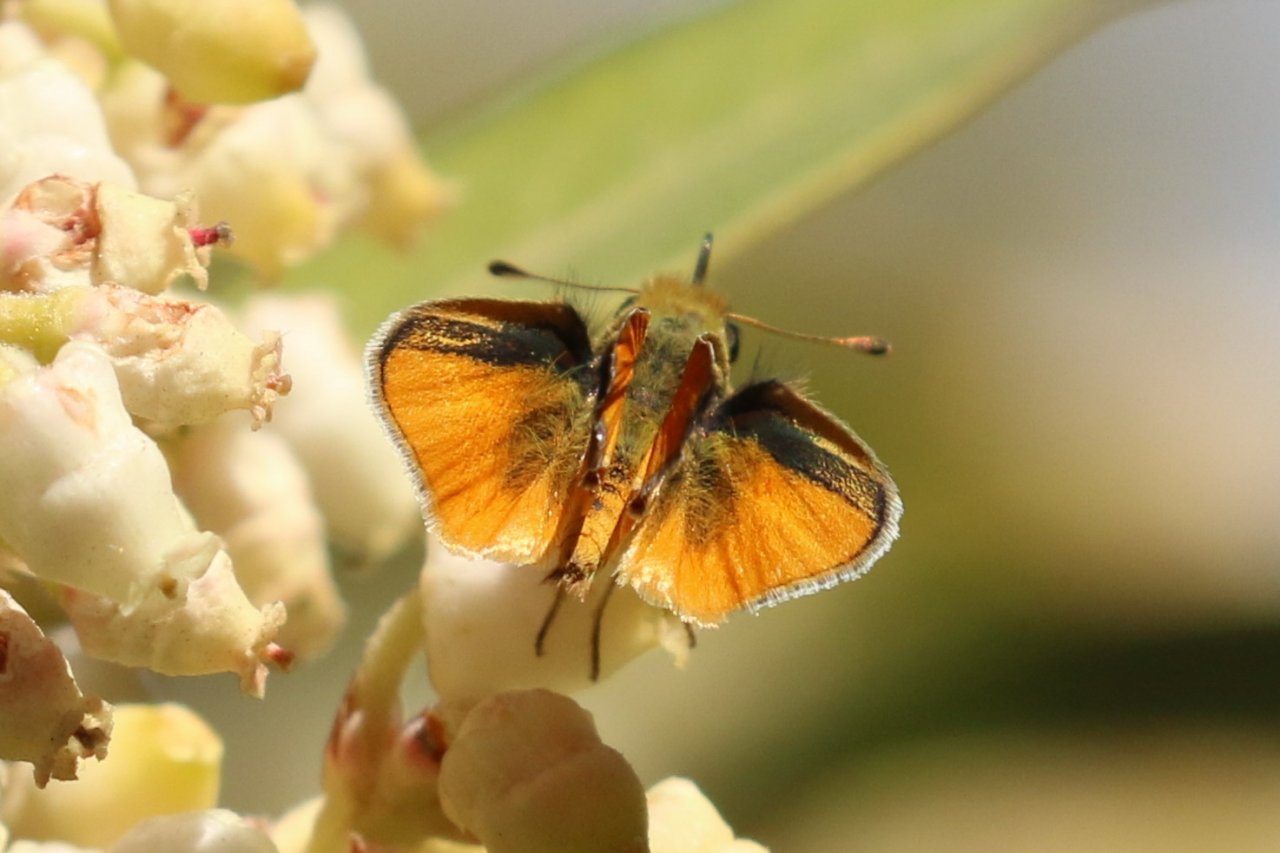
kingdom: Animalia
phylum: Arthropoda
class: Insecta
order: Lepidoptera
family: Hesperiidae
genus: Copaeodes
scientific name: Copaeodes aurantiaca
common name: Orange Skipperling
